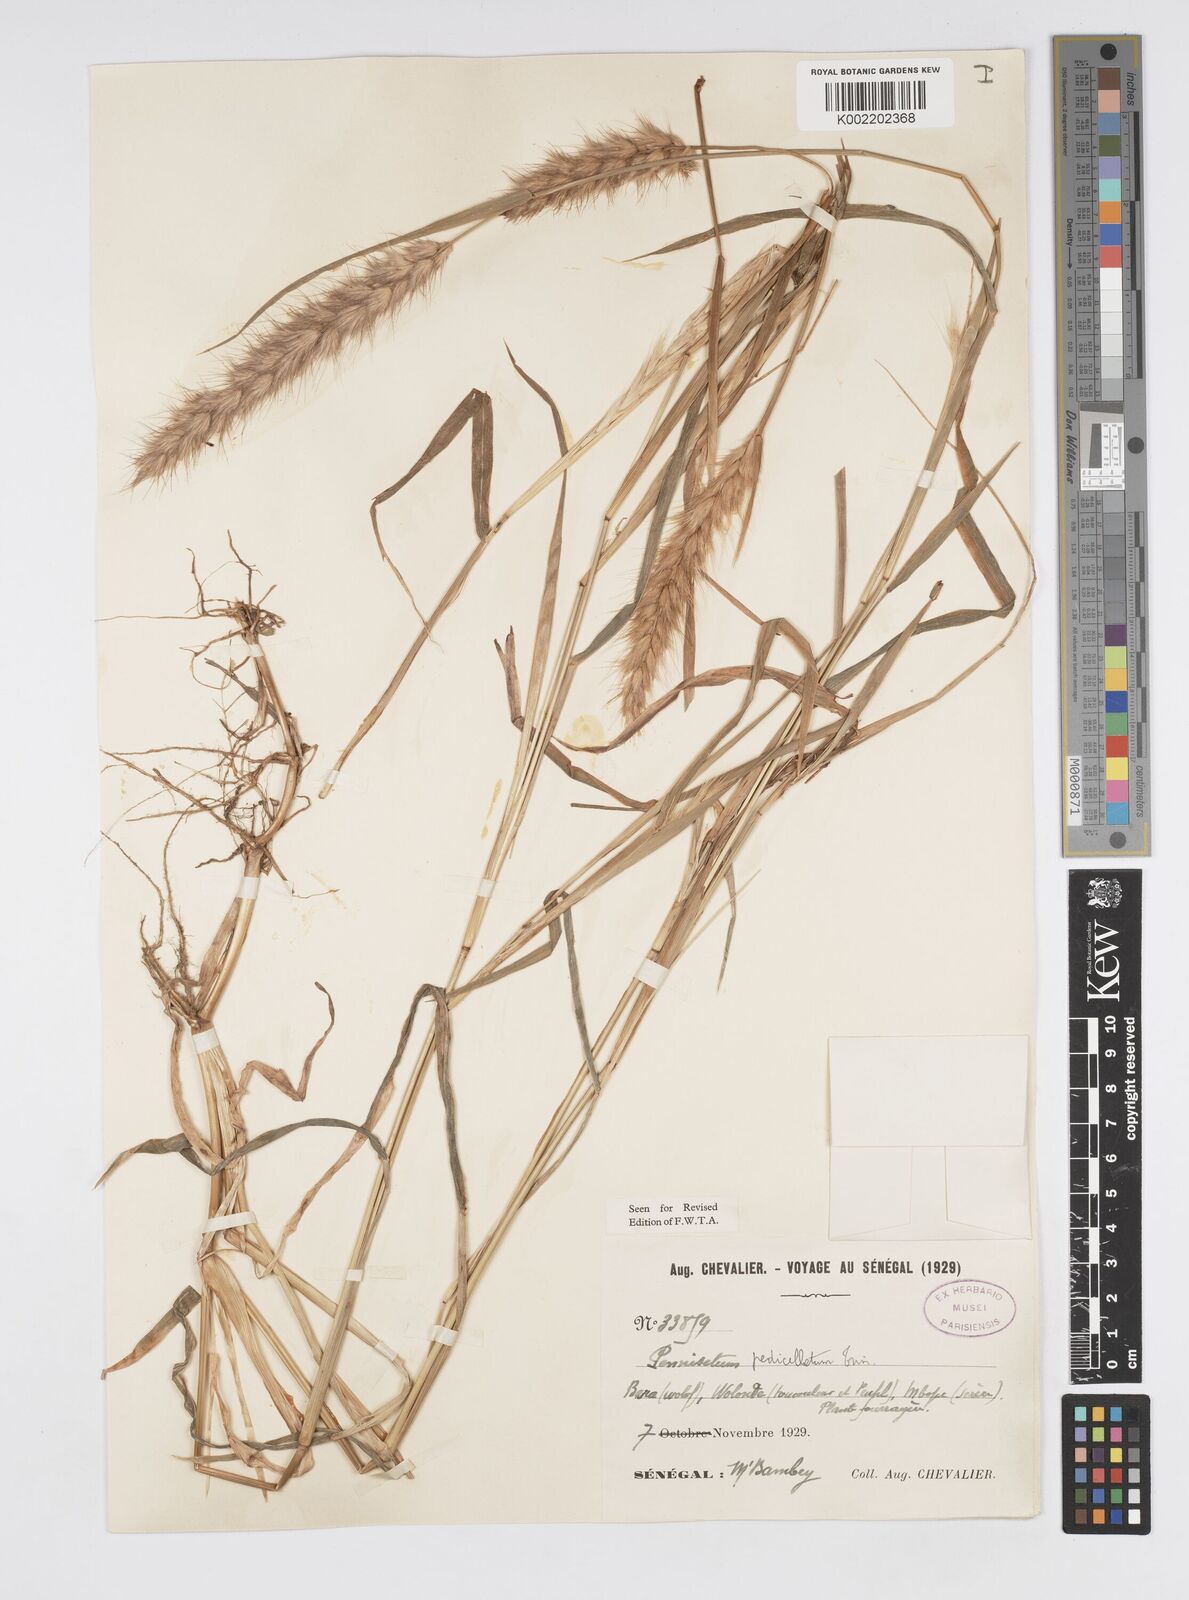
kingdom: Plantae
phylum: Tracheophyta
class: Liliopsida
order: Poales
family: Poaceae
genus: Cenchrus
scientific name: Cenchrus pedicellatus
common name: Hairy fountain grass
